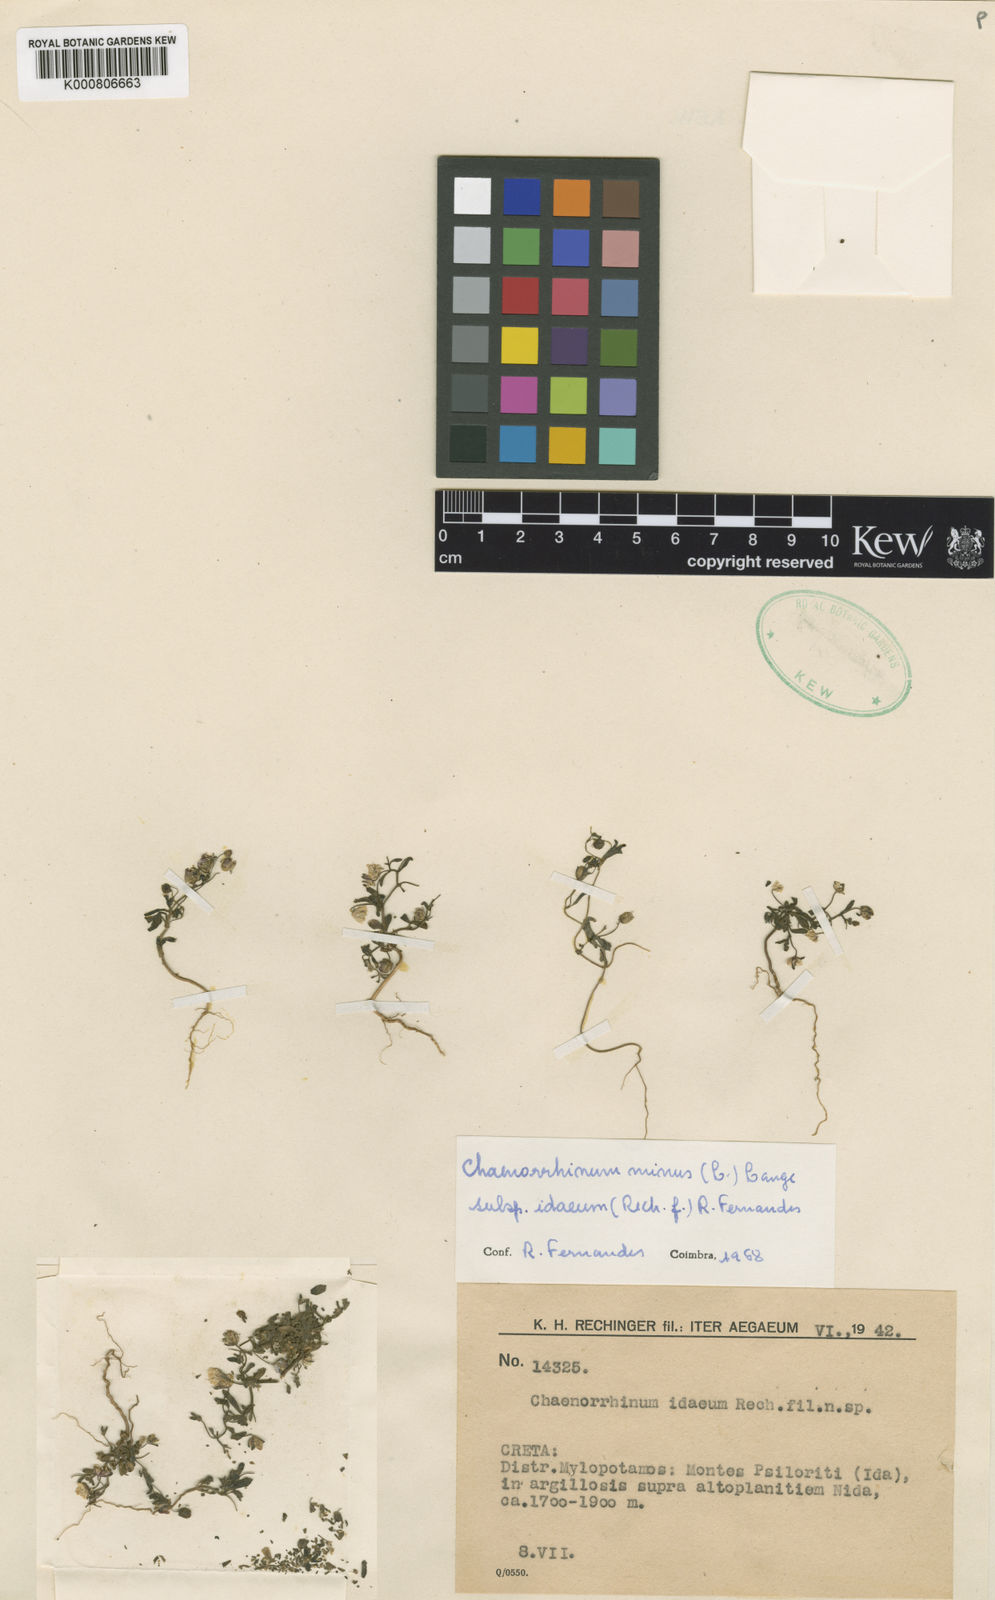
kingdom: Plantae
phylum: Tracheophyta
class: Magnoliopsida
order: Lamiales
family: Plantaginaceae
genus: Chaenorhinum
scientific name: Chaenorhinum minus
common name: Dwarf snapdragon
